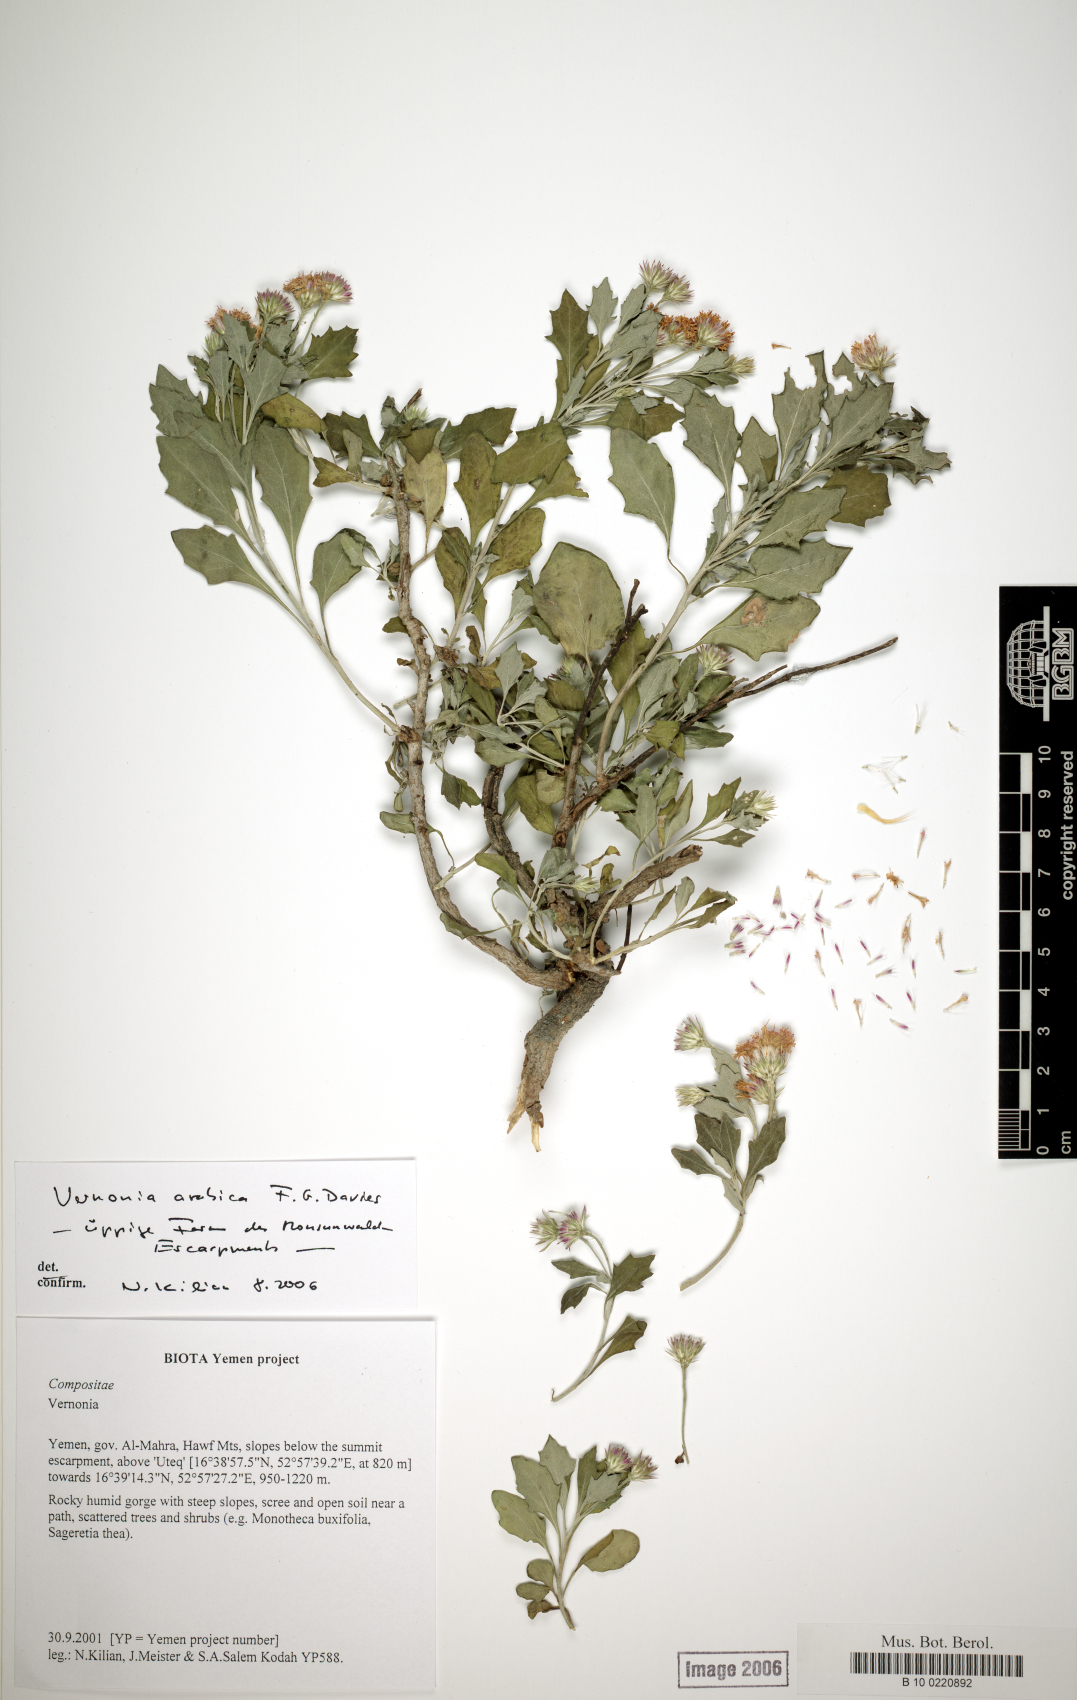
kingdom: Plantae
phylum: Tracheophyta
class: Magnoliopsida
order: Asterales
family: Asteraceae
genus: Vernonia
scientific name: Vernonia arabica
